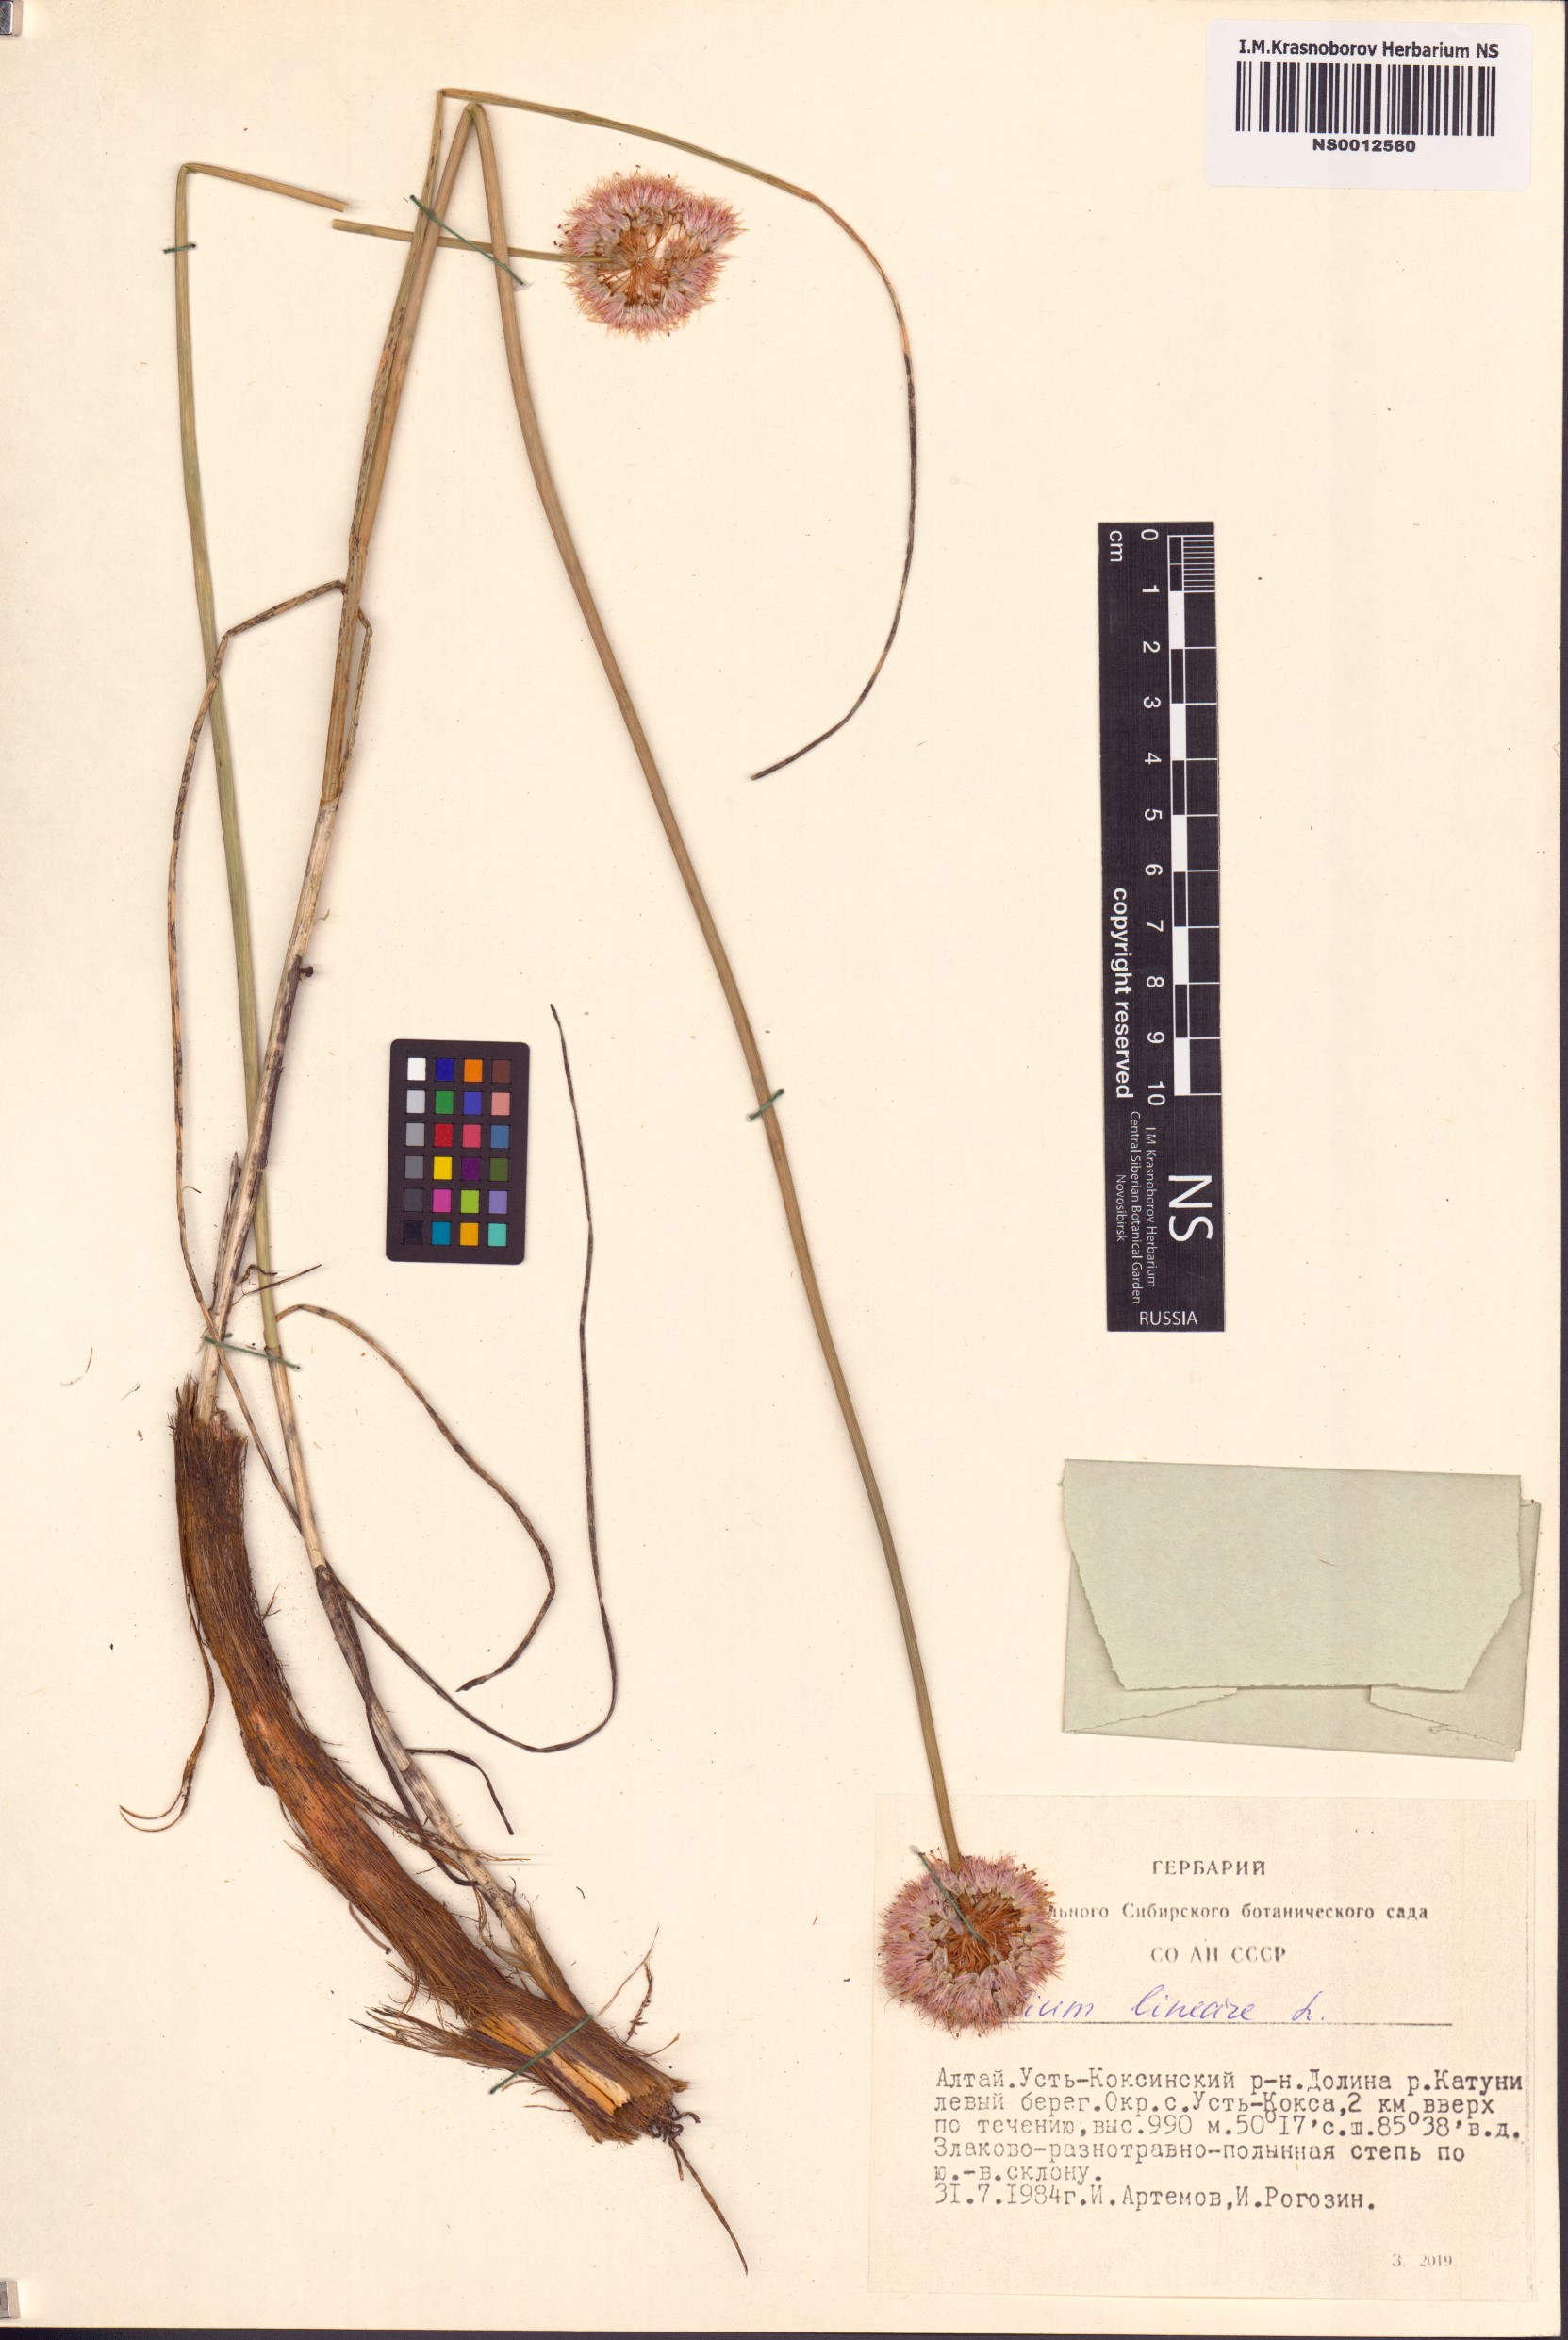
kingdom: Plantae
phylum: Tracheophyta
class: Liliopsida
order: Asparagales
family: Amaryllidaceae
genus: Allium
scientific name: Allium lineare
